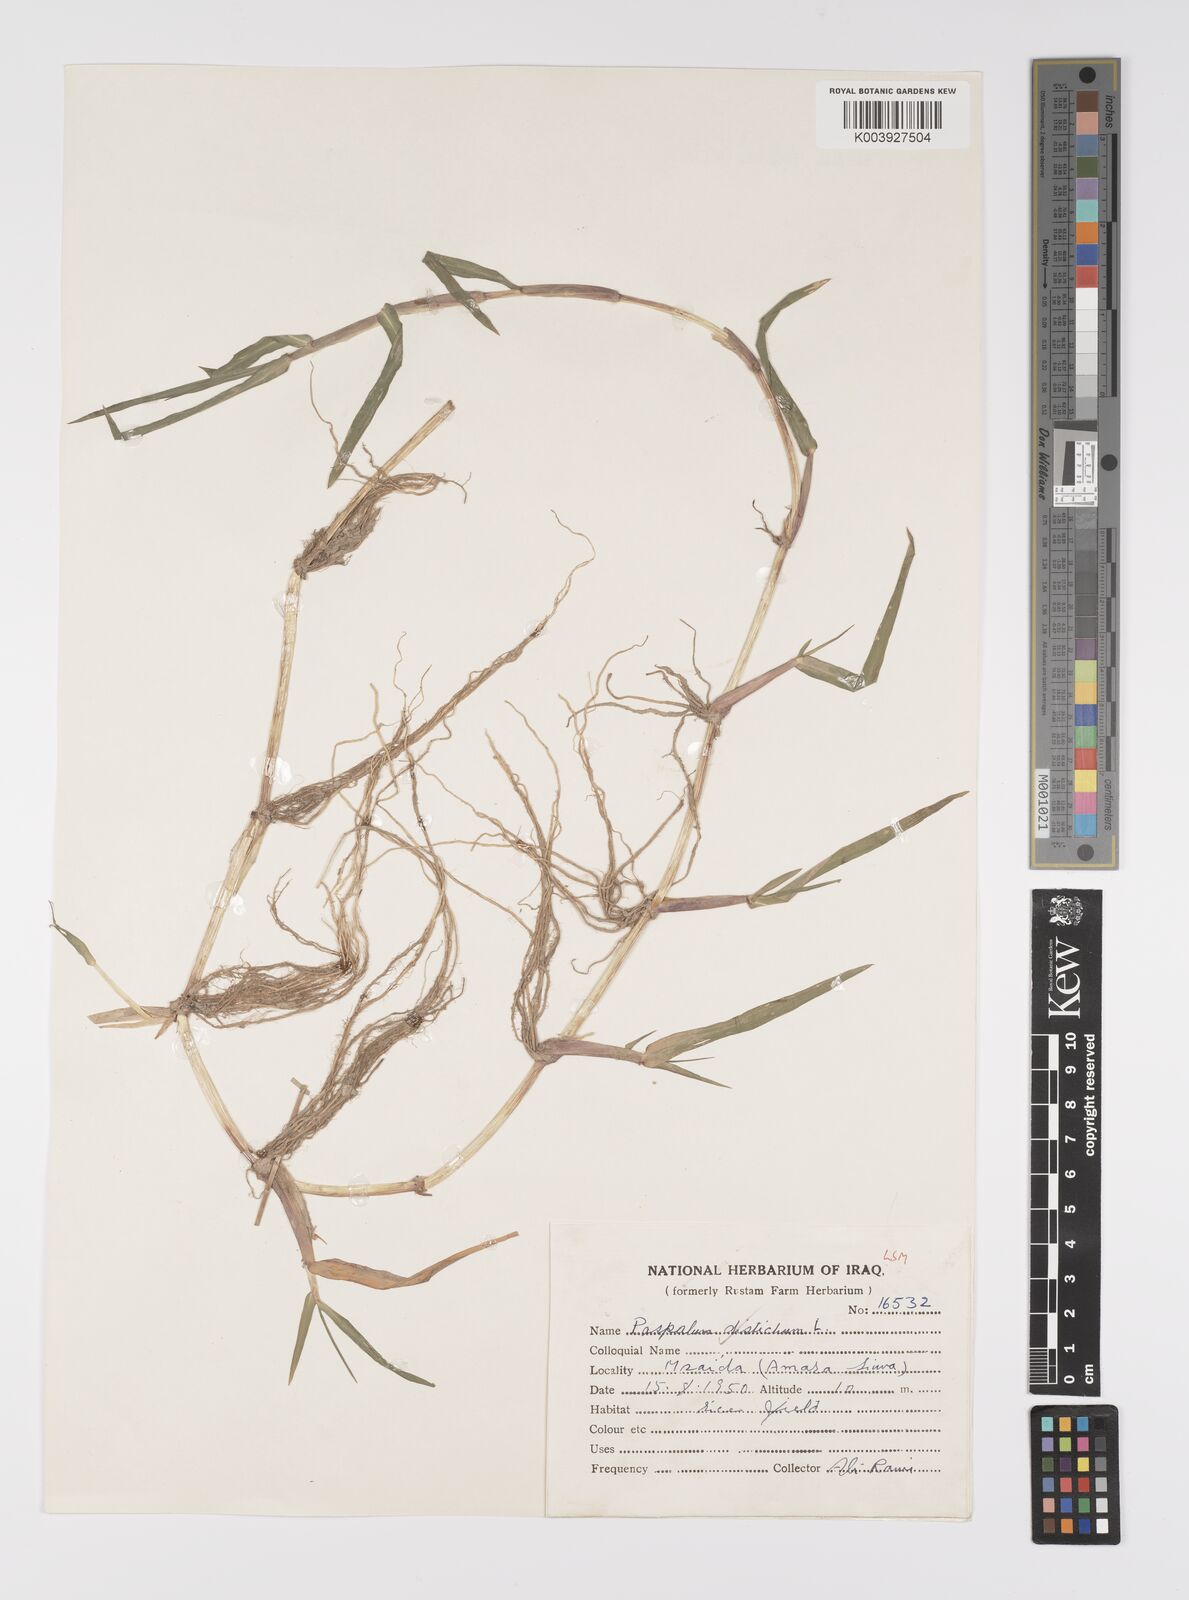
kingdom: Plantae
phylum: Tracheophyta
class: Liliopsida
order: Poales
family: Poaceae
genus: Paspalum
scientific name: Paspalum distichum
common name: Knotgrass
